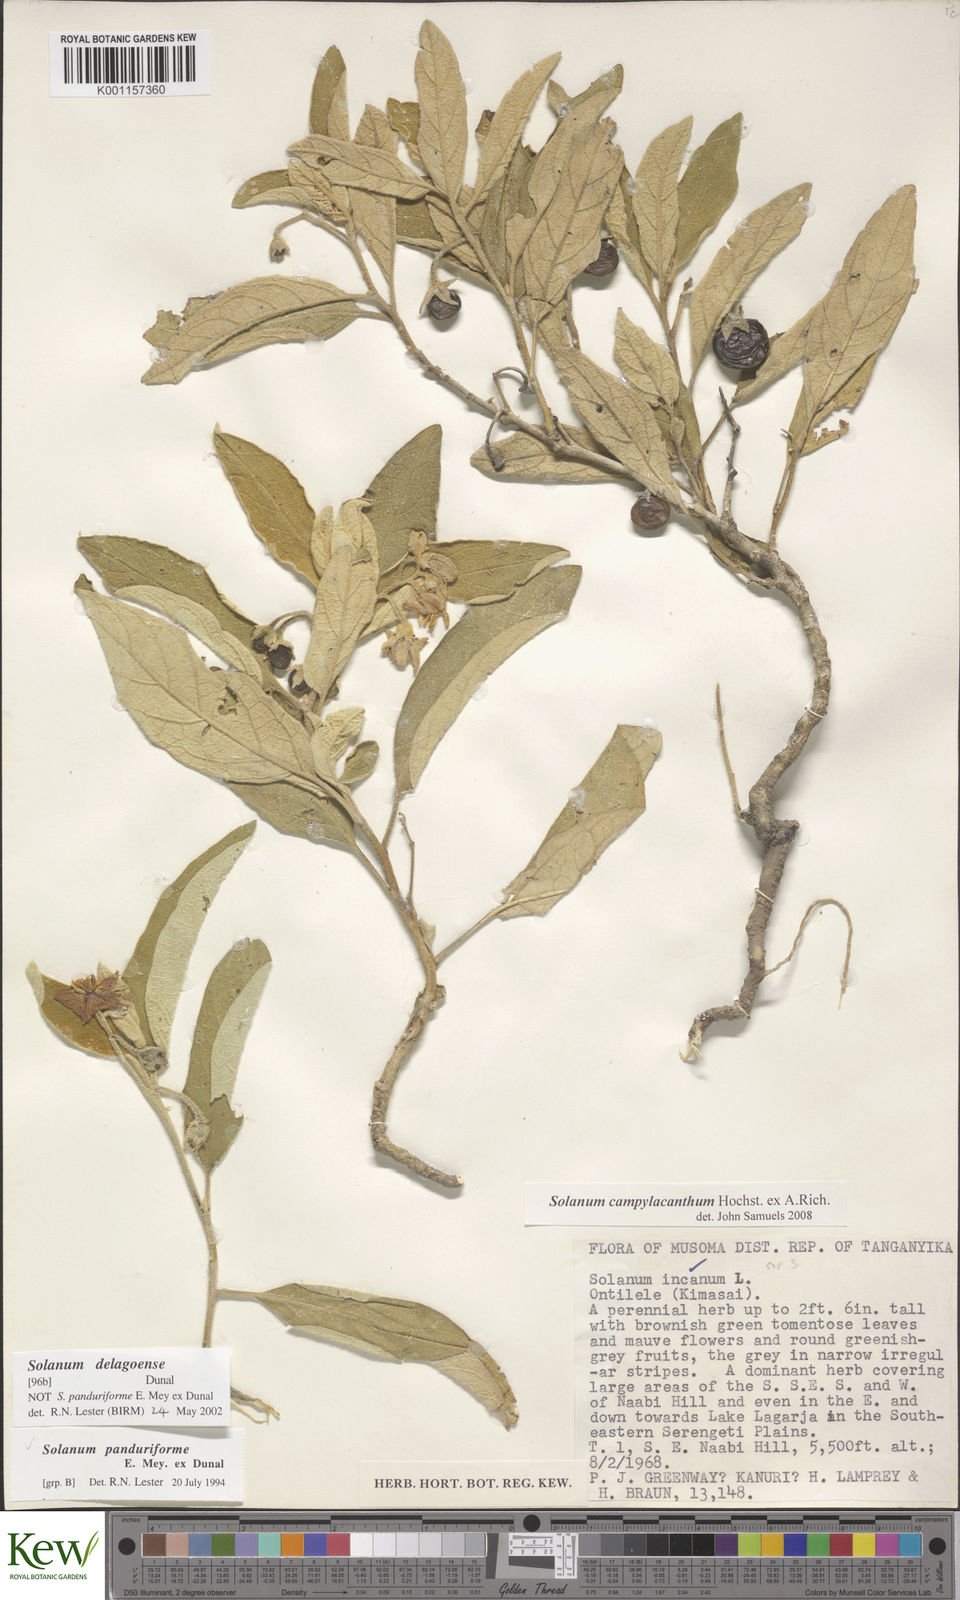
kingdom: Plantae
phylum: Tracheophyta
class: Magnoliopsida
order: Solanales
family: Solanaceae
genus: Solanum
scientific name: Solanum campylacanthum
